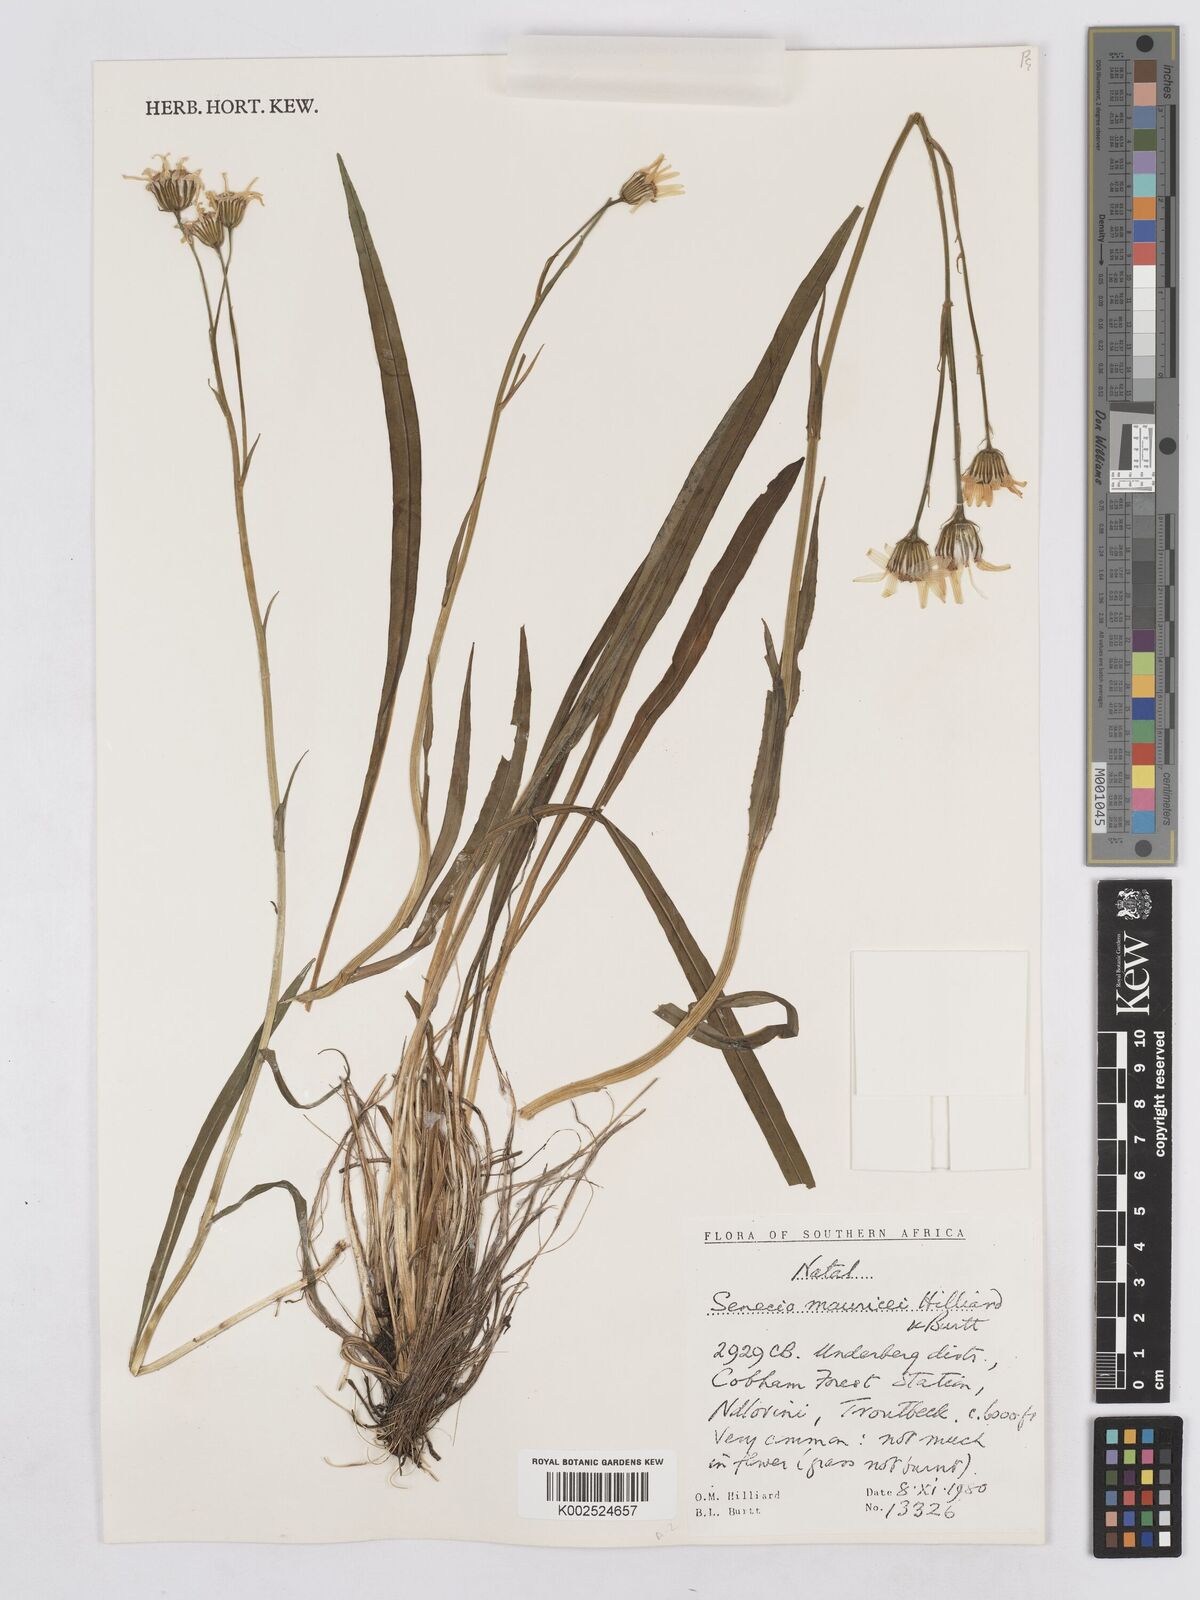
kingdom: Plantae
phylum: Tracheophyta
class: Magnoliopsida
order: Asterales
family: Asteraceae
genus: Senecio
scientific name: Senecio mauricei
